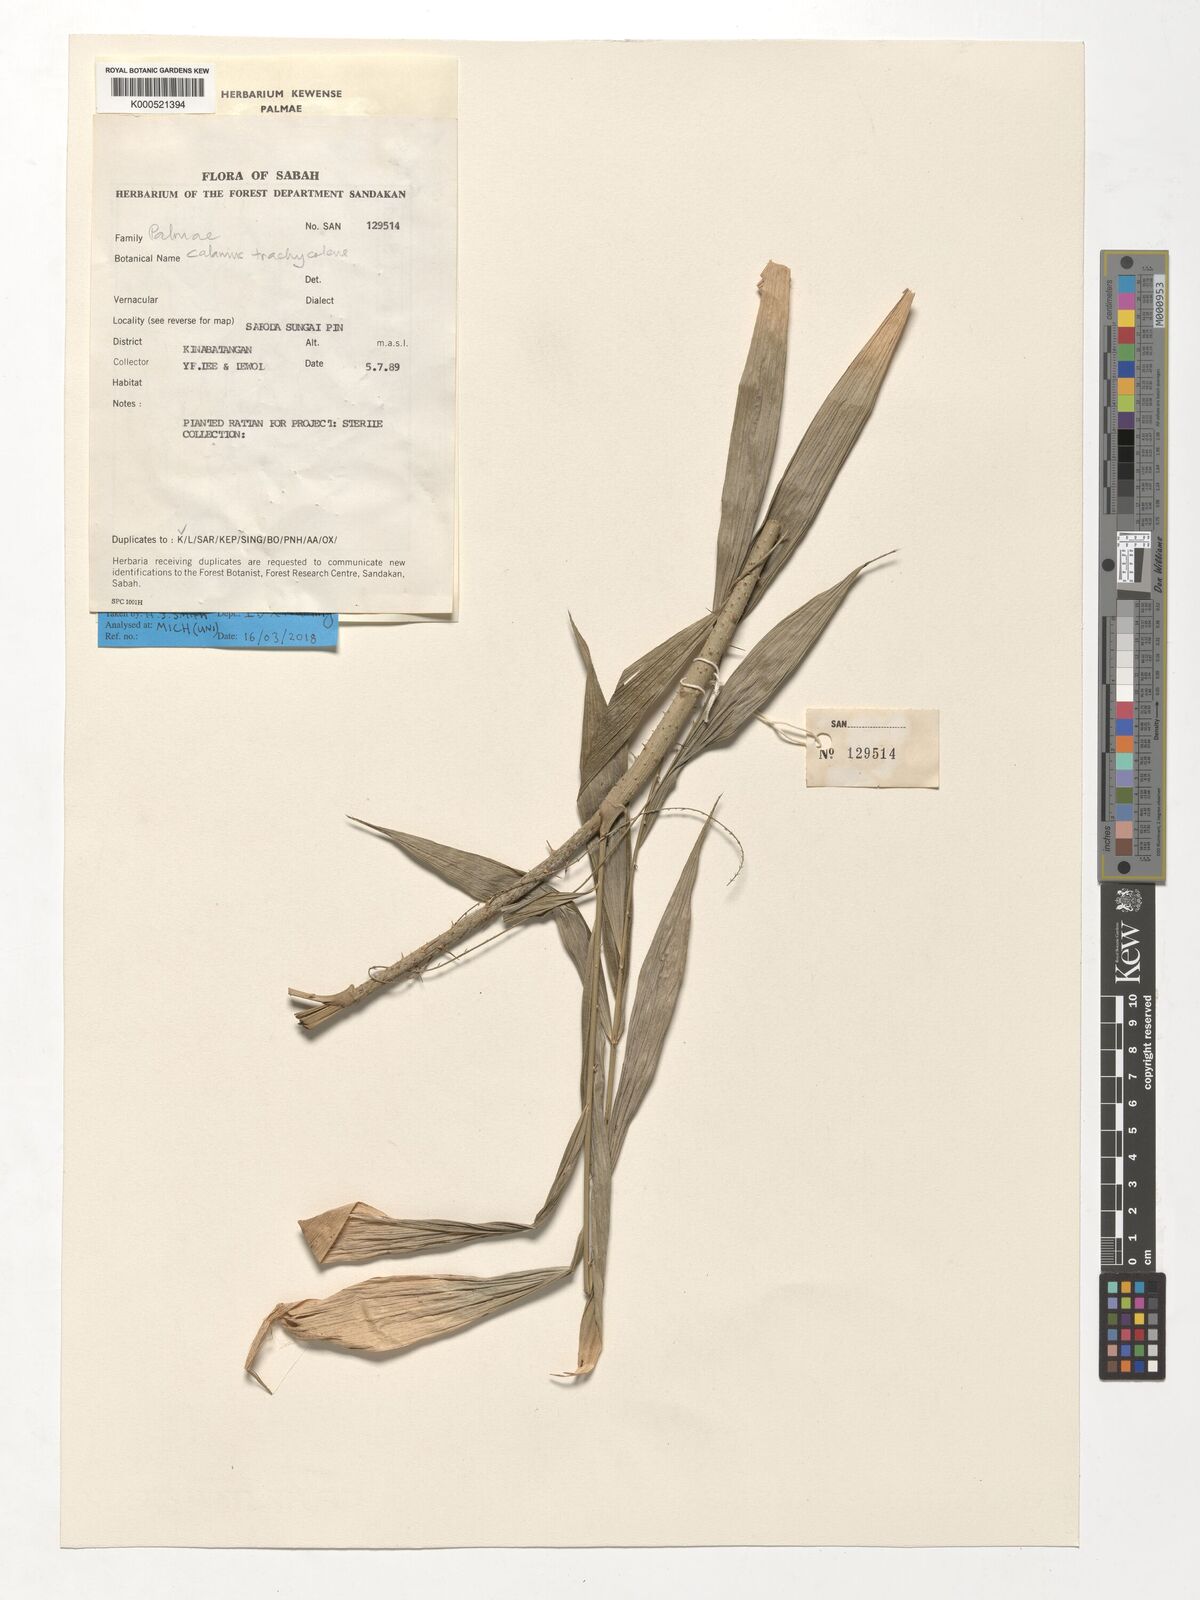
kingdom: Plantae
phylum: Tracheophyta
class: Liliopsida
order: Arecales
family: Arecaceae
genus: Calamus
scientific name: Calamus trachycoleus
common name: Rattan palm
